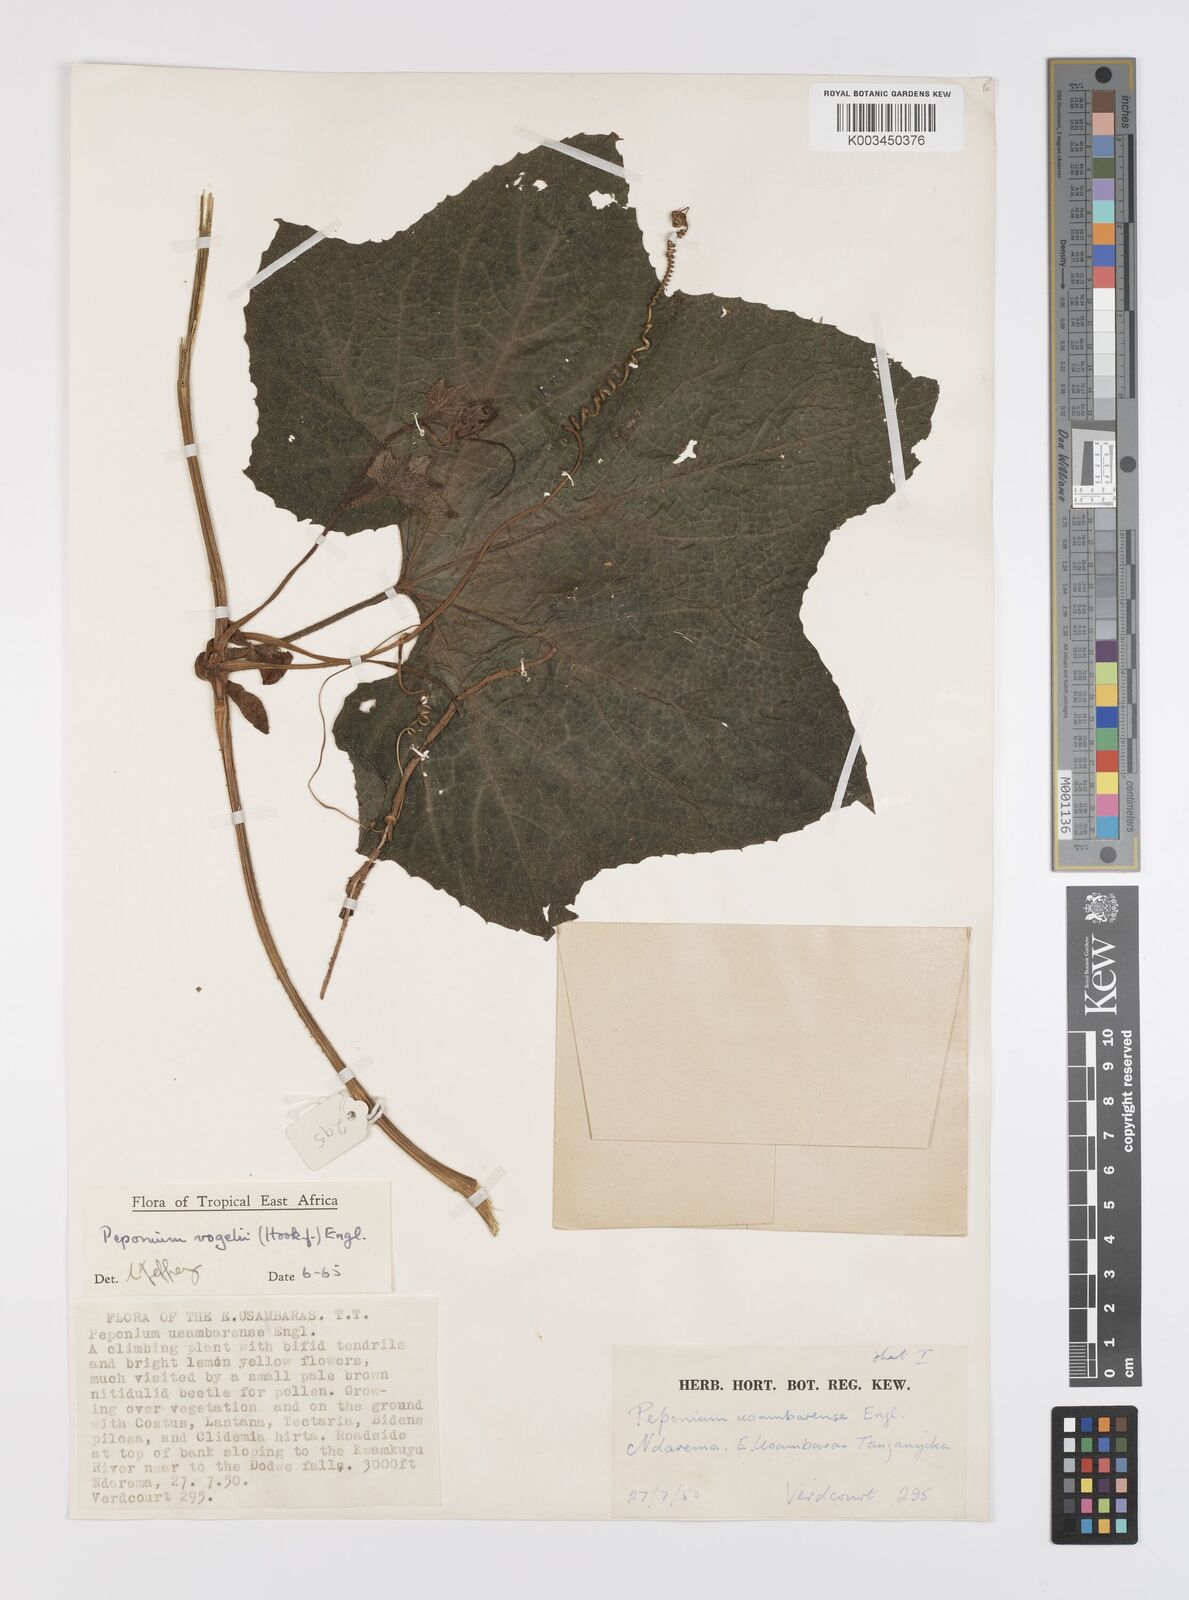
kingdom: Plantae
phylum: Tracheophyta
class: Magnoliopsida
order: Cucurbitales
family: Cucurbitaceae
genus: Peponium
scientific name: Peponium vogelii
